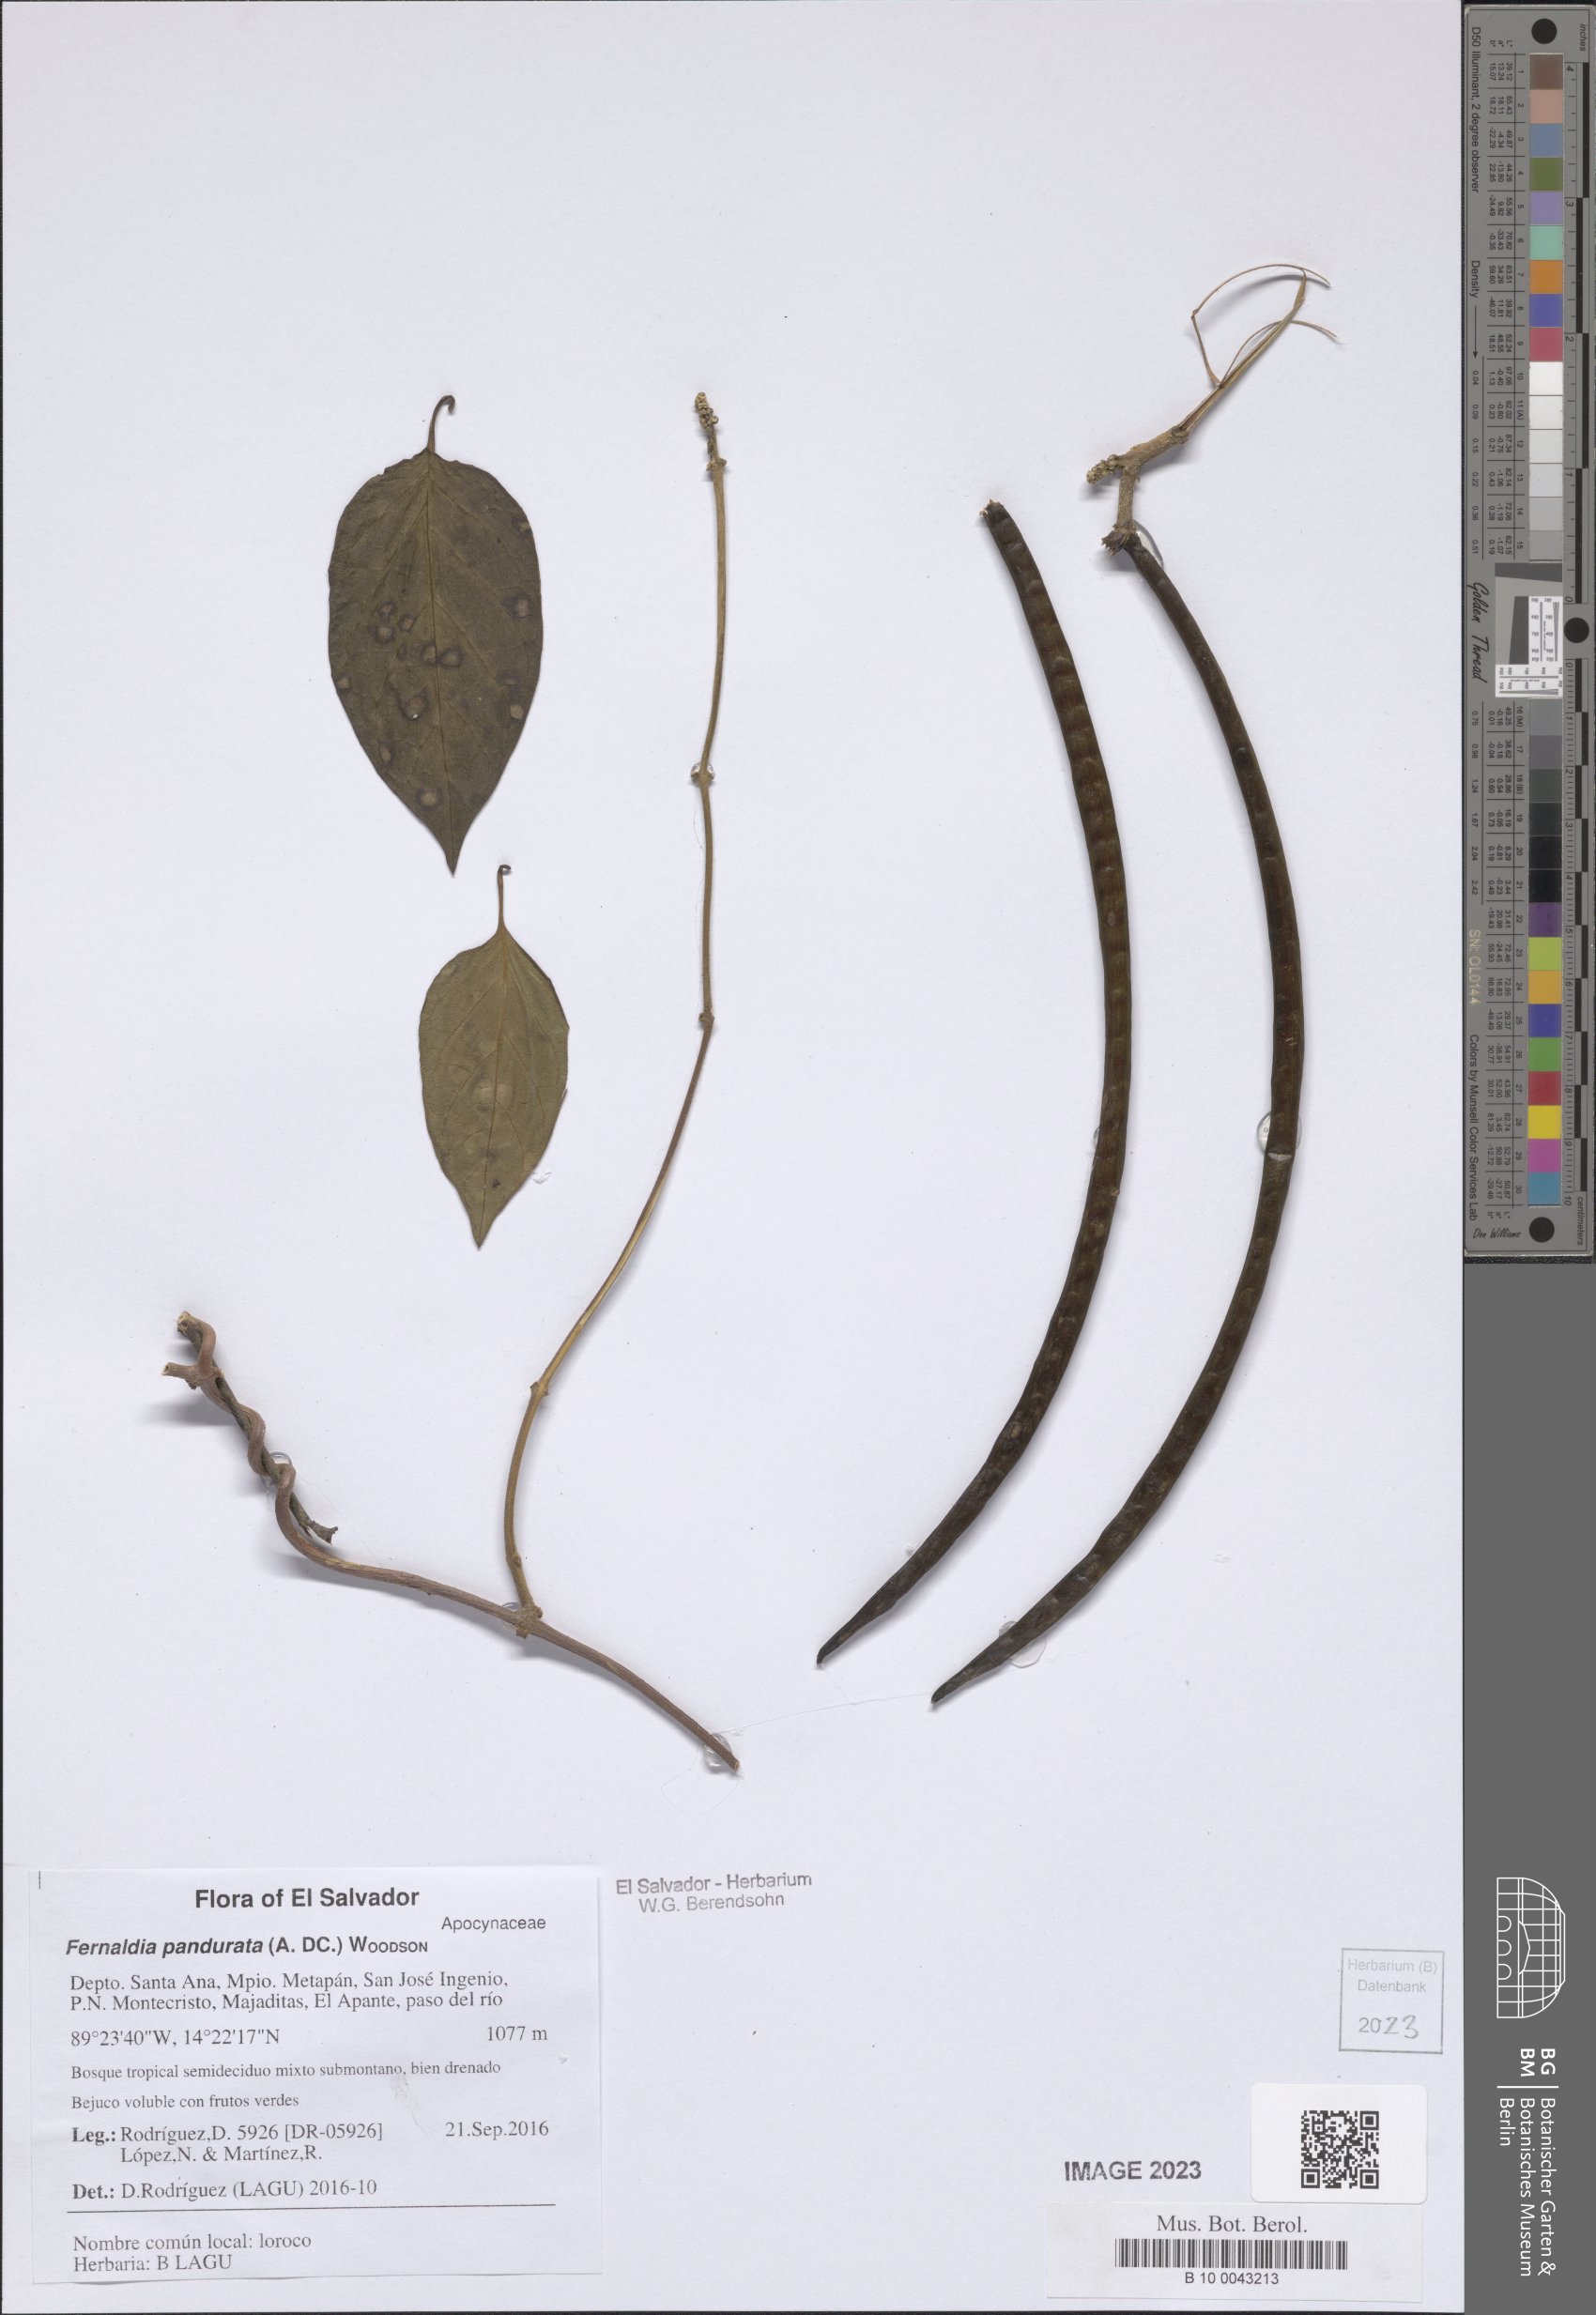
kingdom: Plantae
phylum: Tracheophyta
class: Magnoliopsida
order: Gentianales
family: Apocynaceae
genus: Echites
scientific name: Echites panduratus
